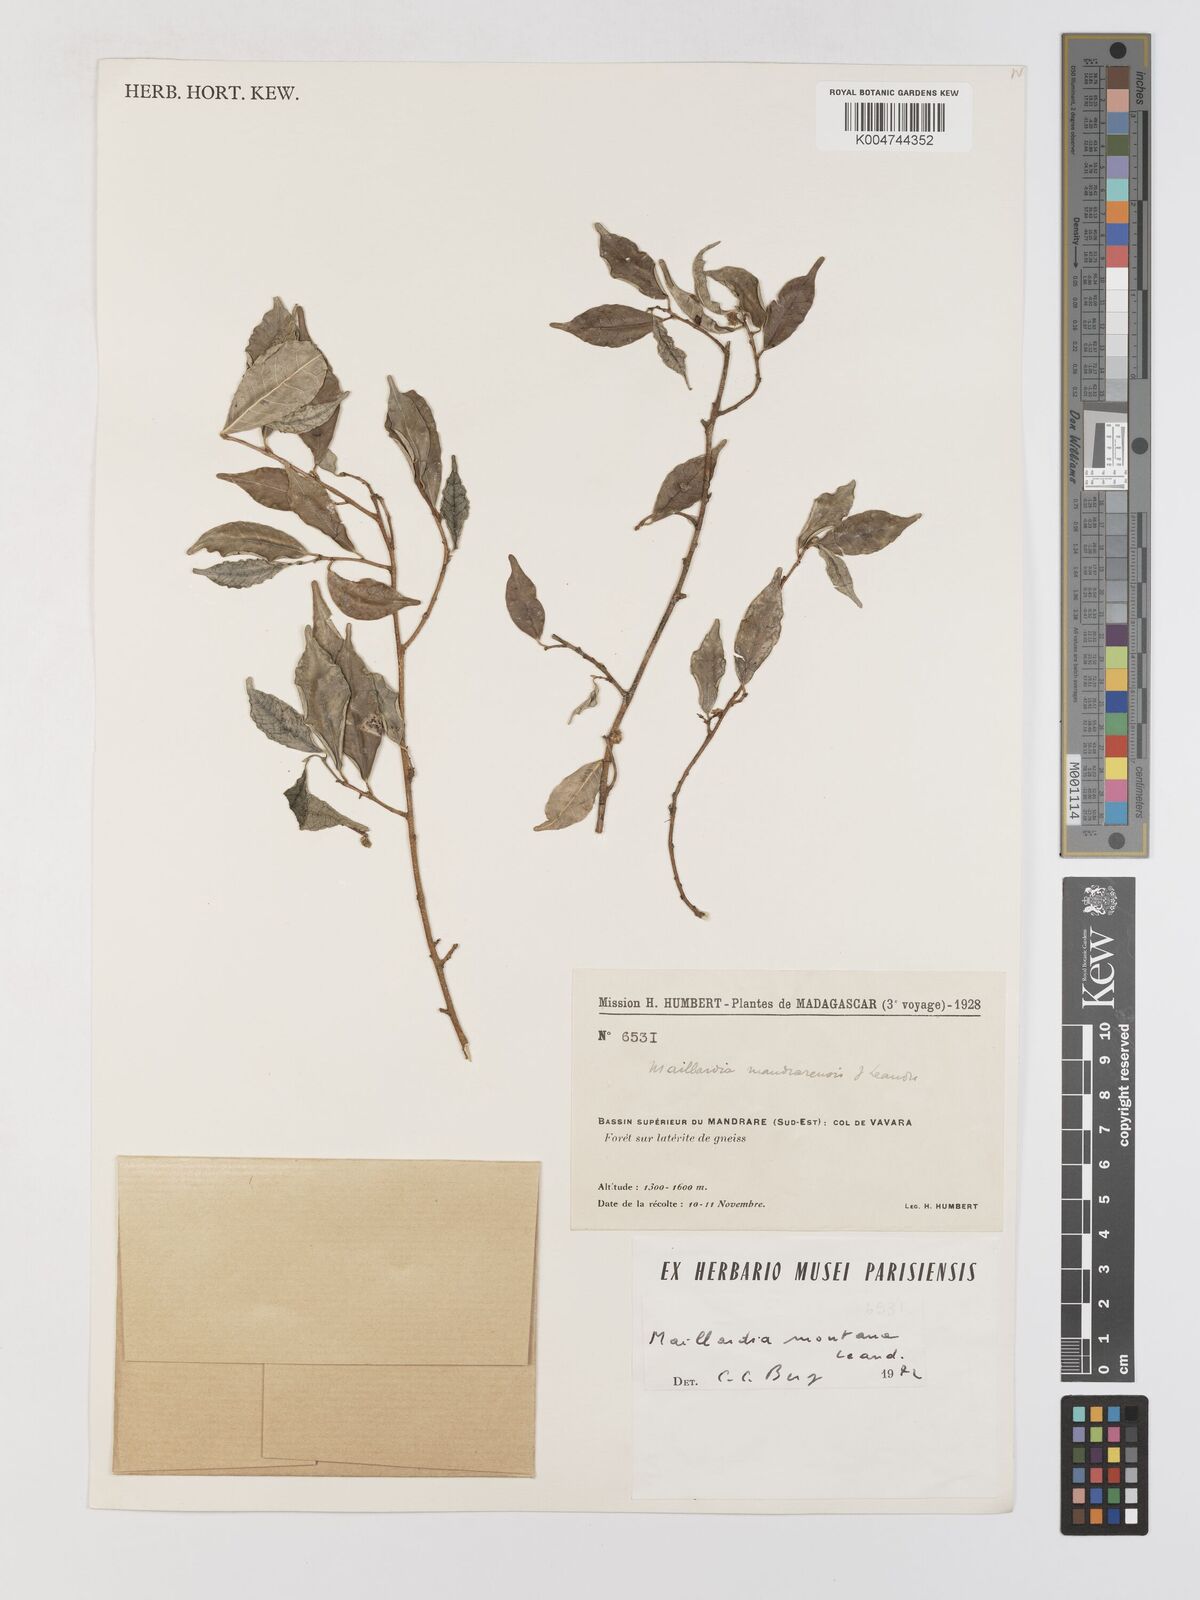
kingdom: Plantae
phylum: Tracheophyta
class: Magnoliopsida
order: Rosales
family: Moraceae
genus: Maillardia
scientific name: Maillardia montana
